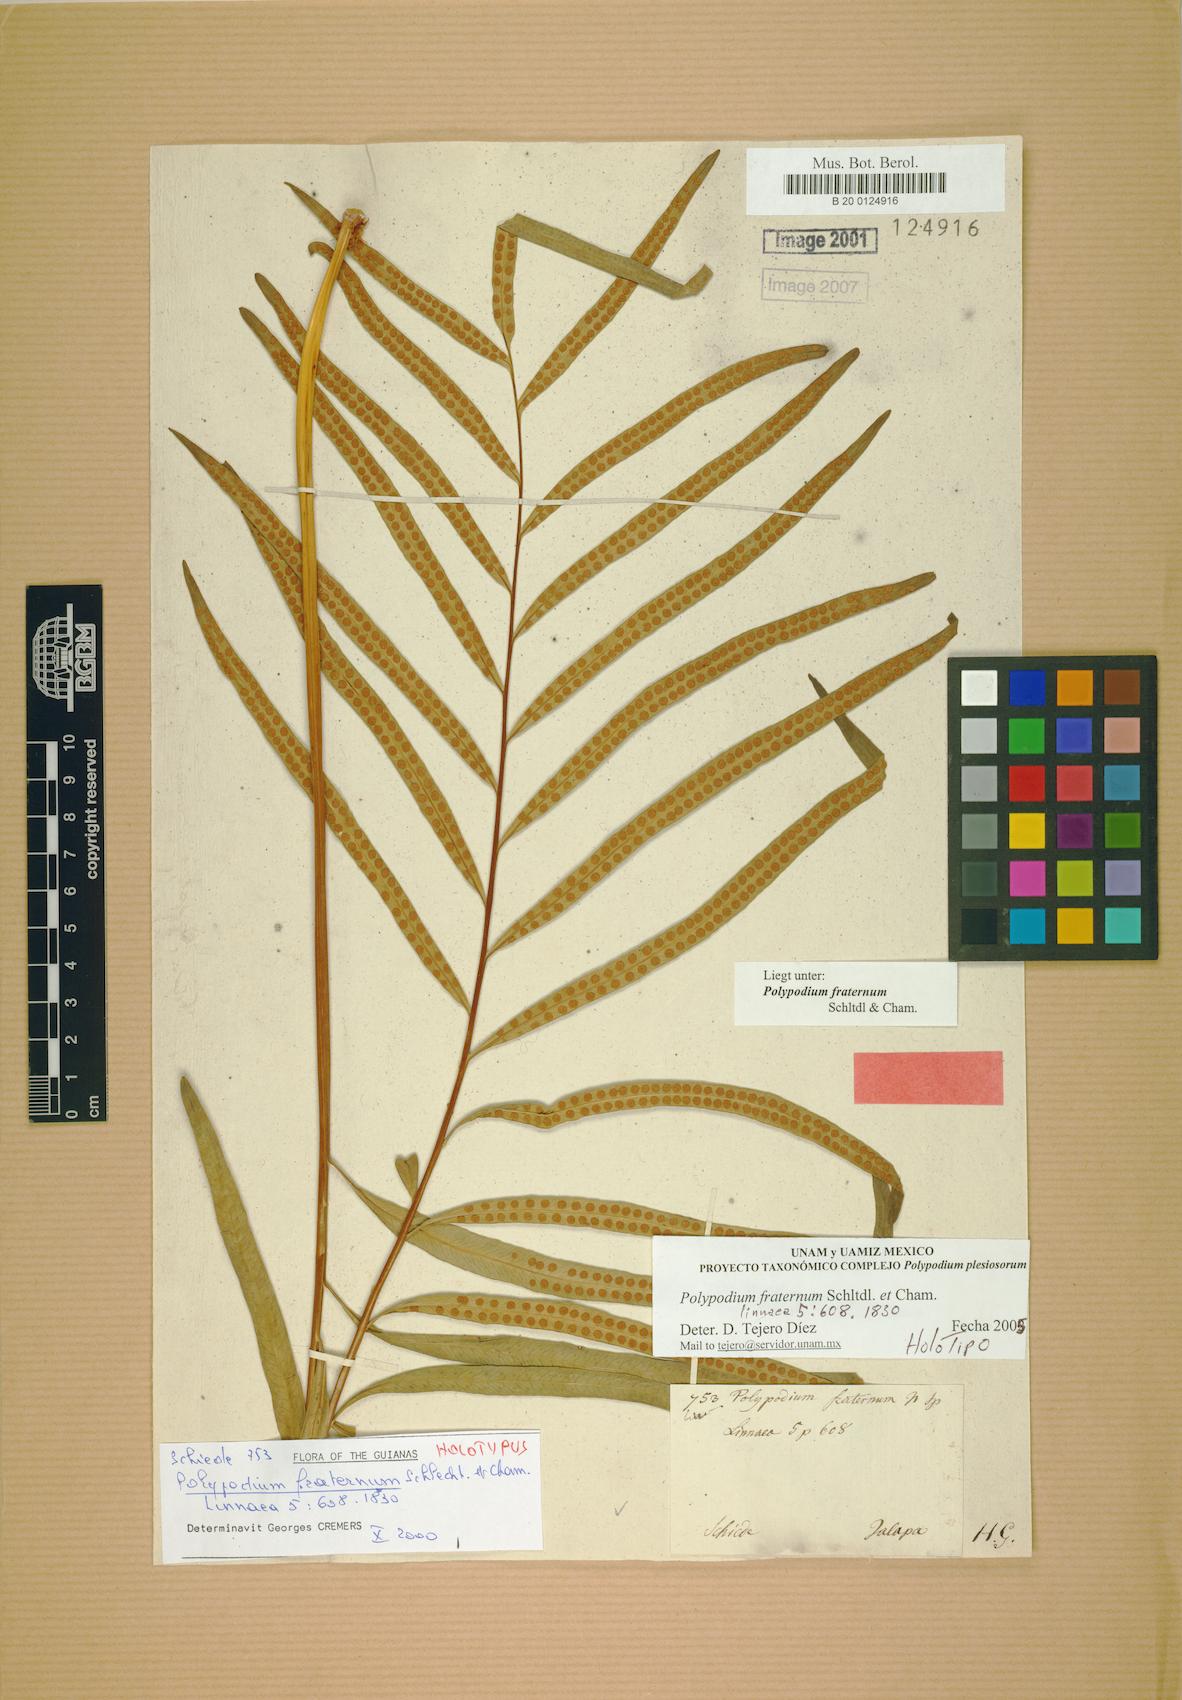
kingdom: Plantae
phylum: Tracheophyta
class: Polypodiopsida
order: Polypodiales
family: Polypodiaceae
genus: Polypodium
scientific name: Polypodium fraternum
